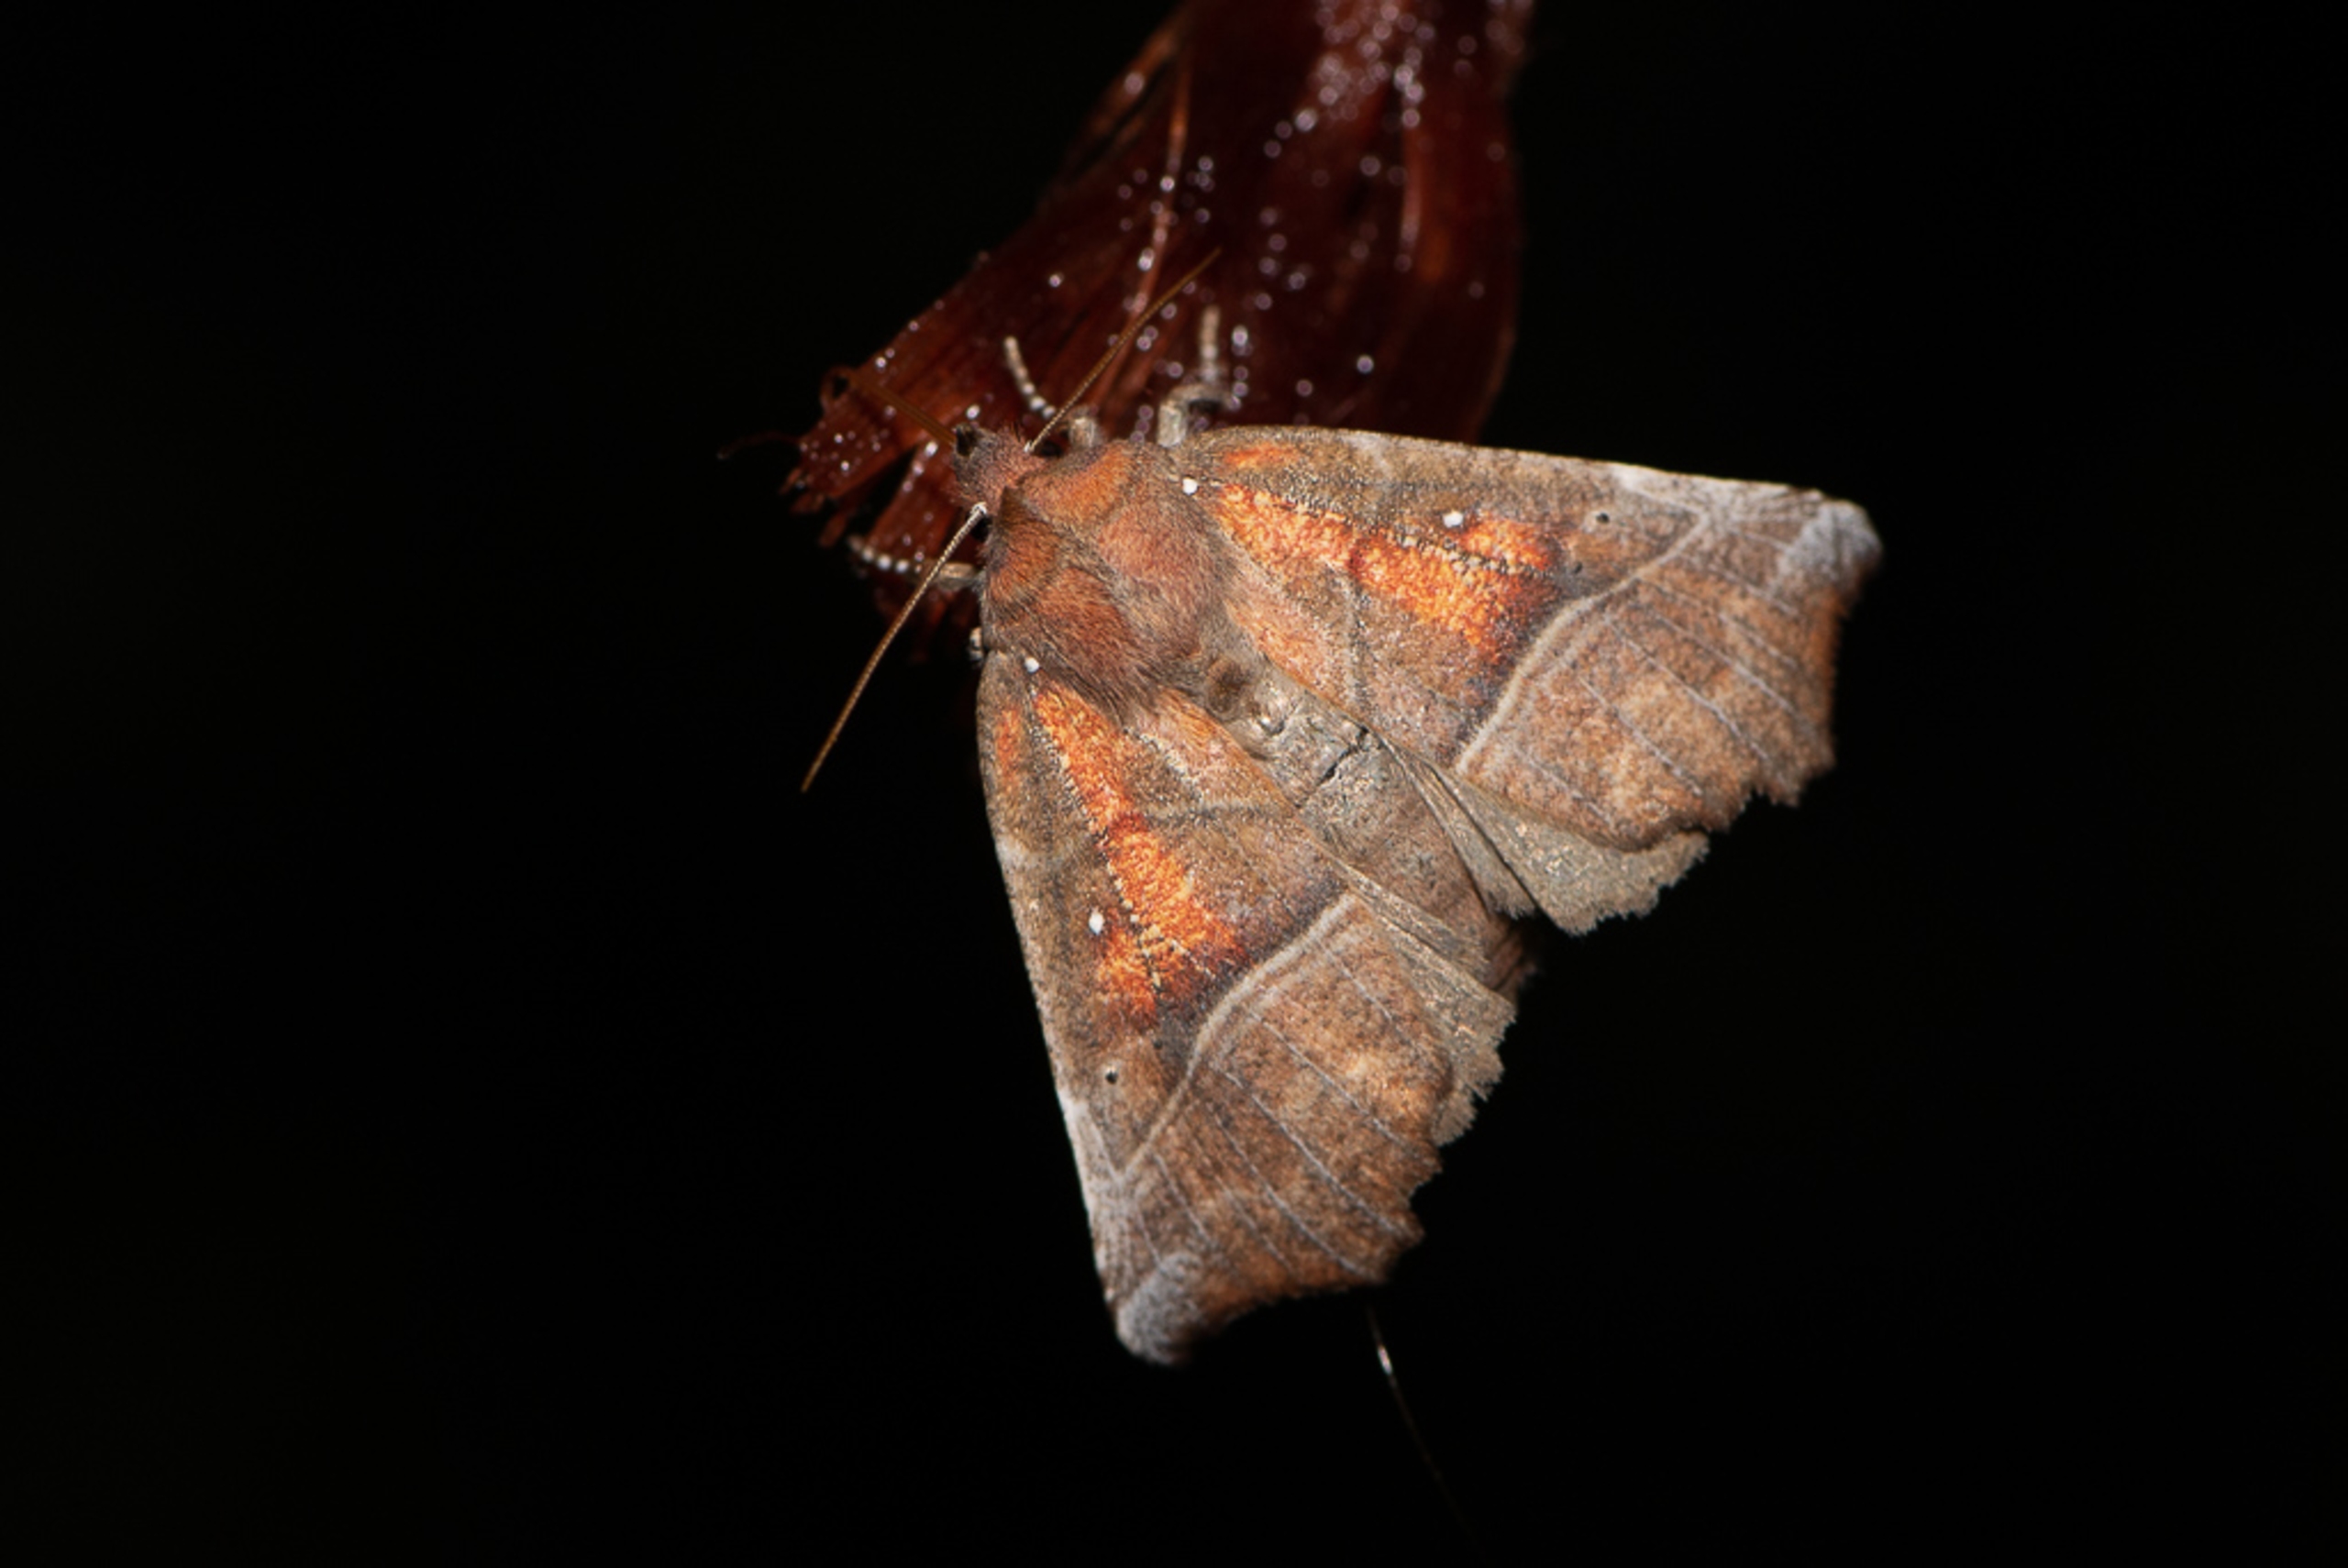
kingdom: Animalia
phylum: Arthropoda
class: Insecta
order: Lepidoptera
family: Erebidae
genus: Scoliopteryx
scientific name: Scoliopteryx libatrix
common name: Husmoderugle
